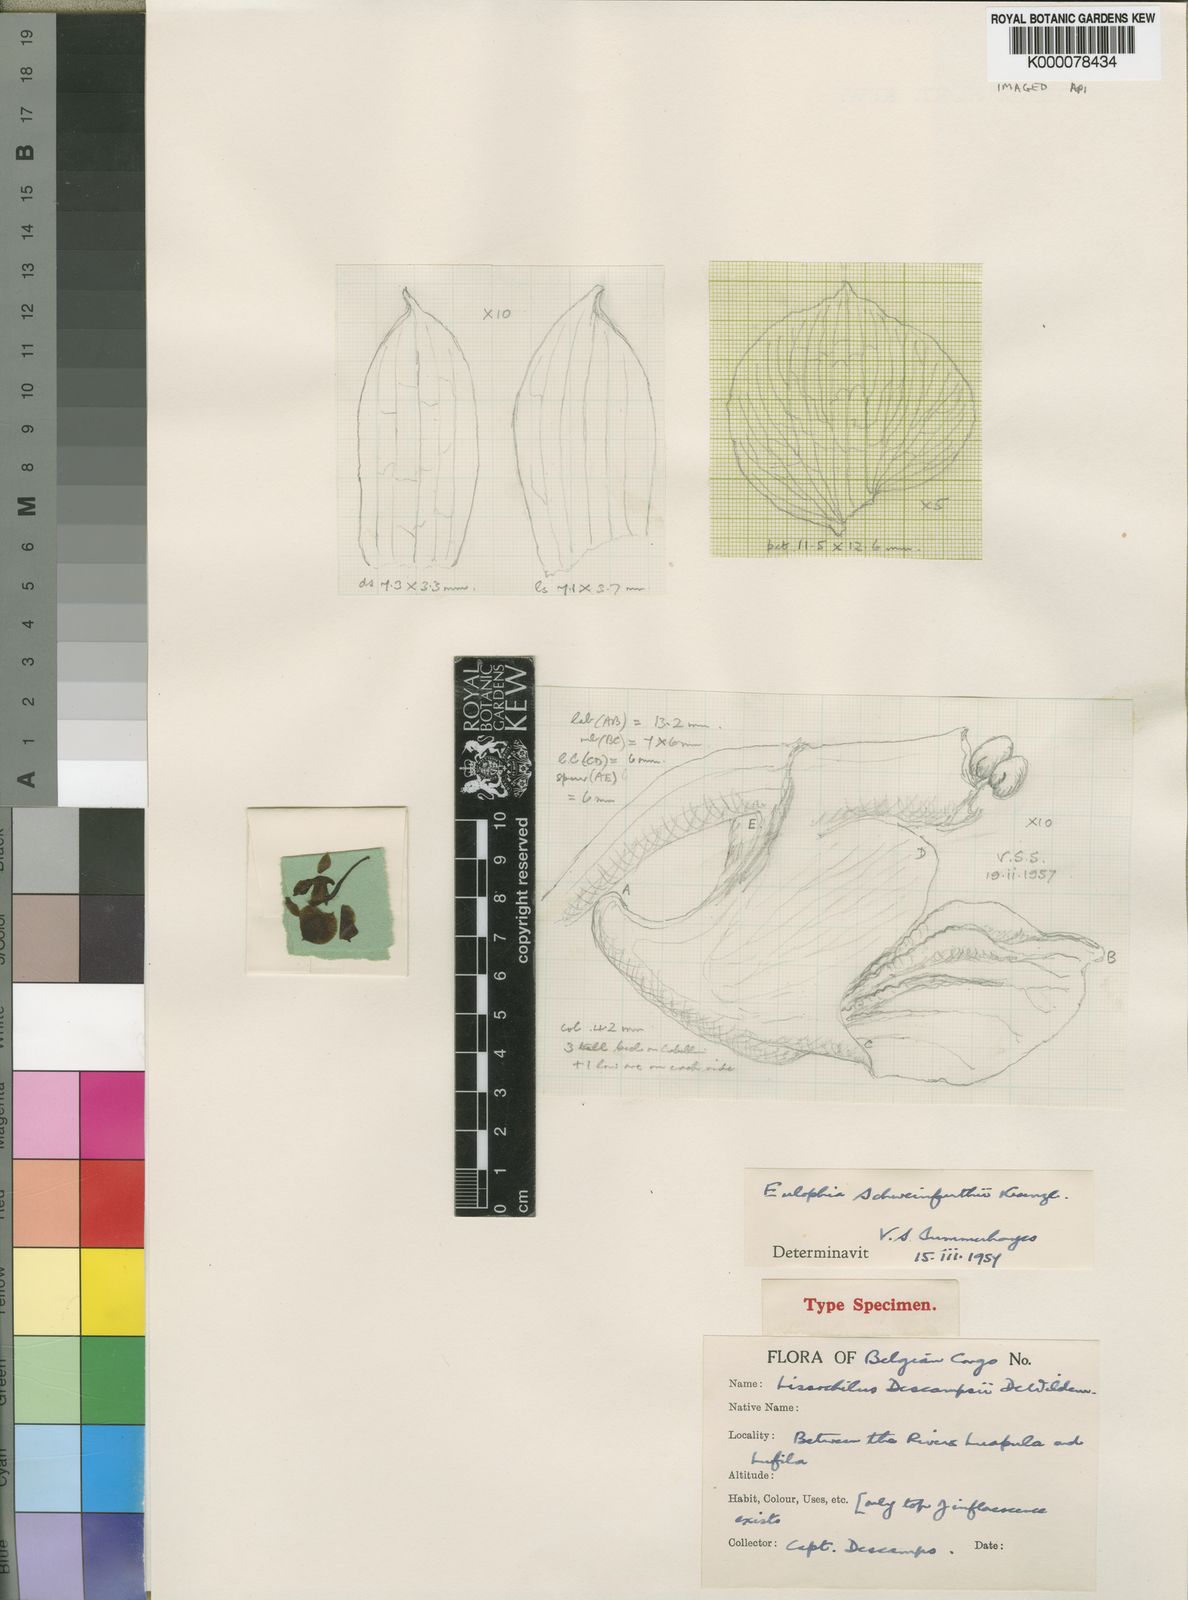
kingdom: Plantae
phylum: Tracheophyta
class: Liliopsida
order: Asparagales
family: Orchidaceae
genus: Eulophia
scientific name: Eulophia schweinfurthii
